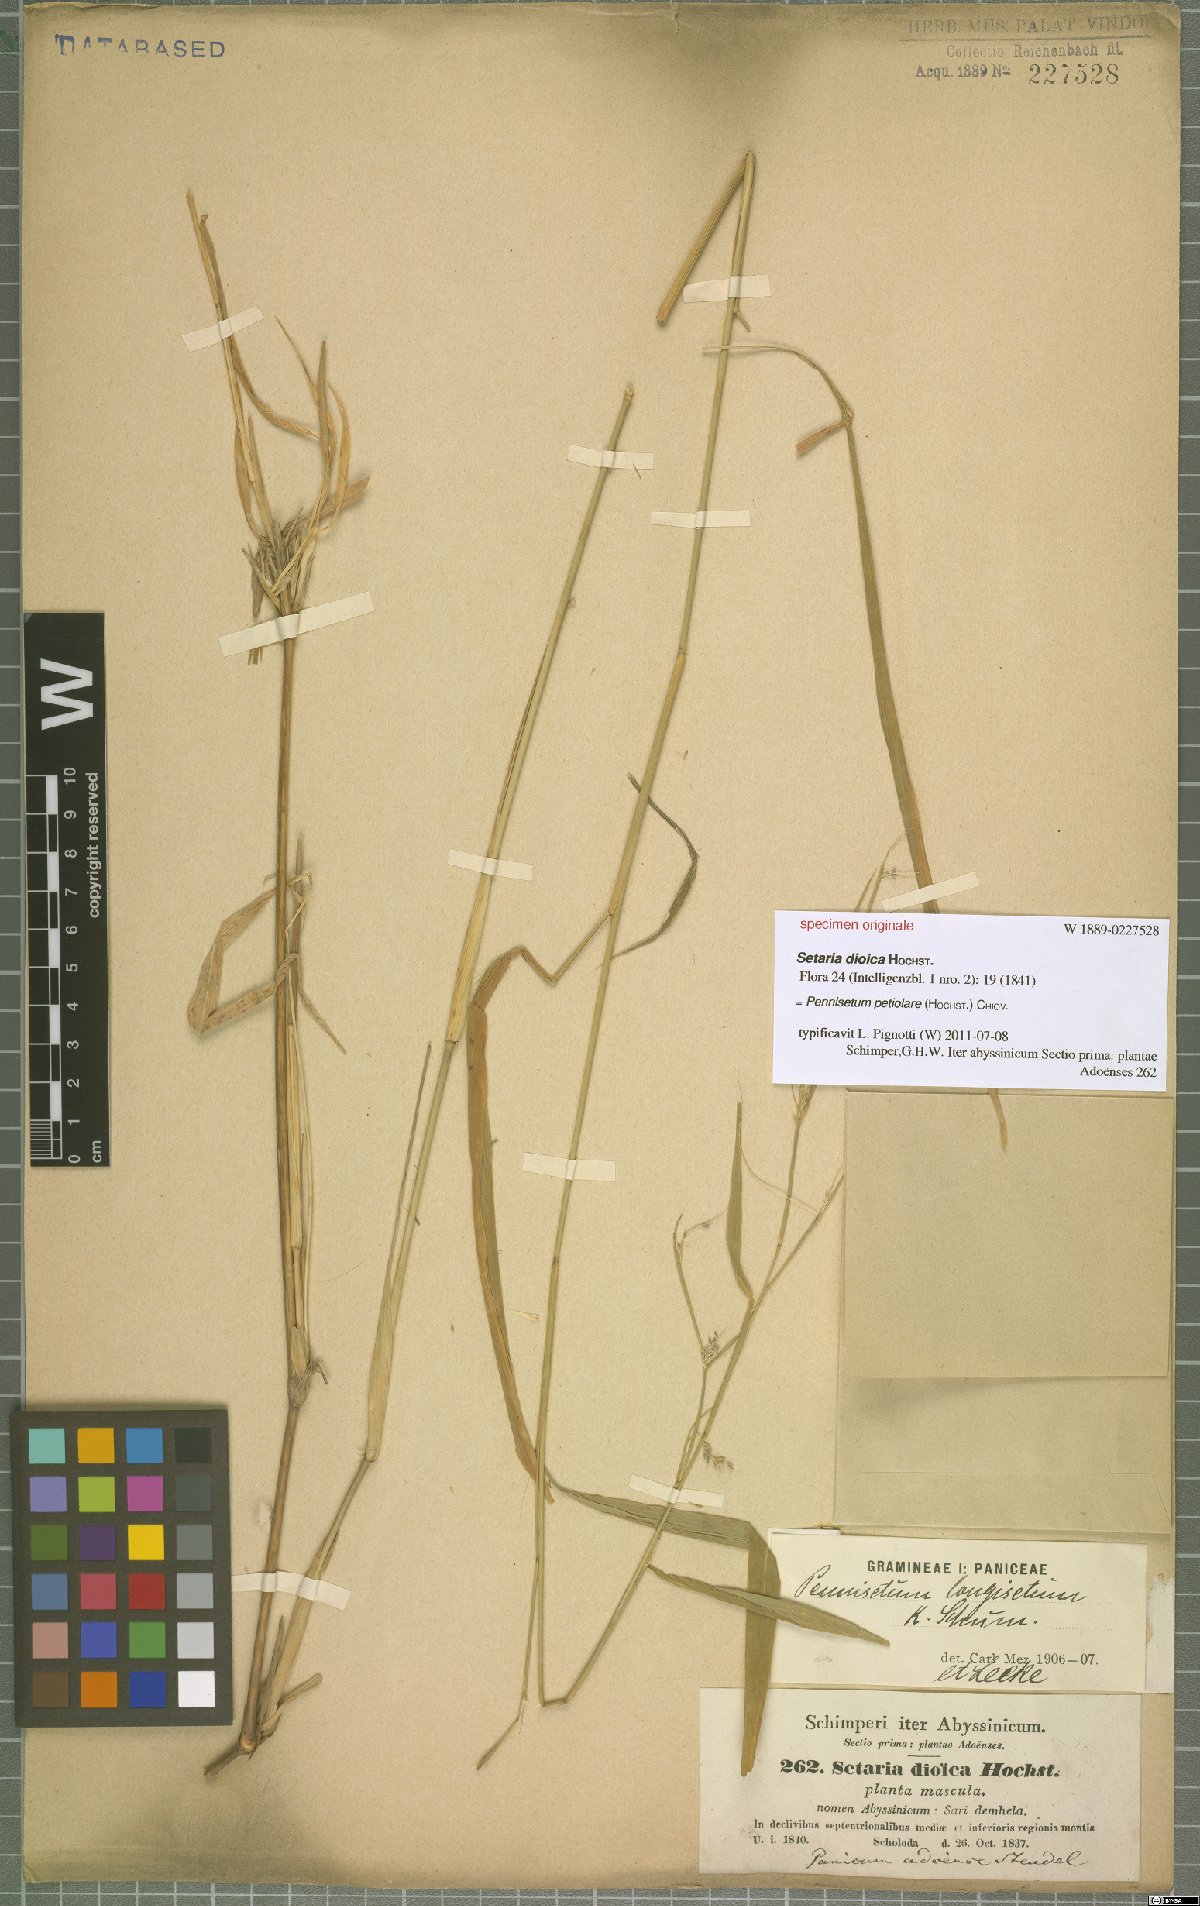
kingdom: Plantae
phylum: Tracheophyta
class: Liliopsida
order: Poales
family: Poaceae
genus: Cenchrus
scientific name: Cenchrus petiolaris
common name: Grass
